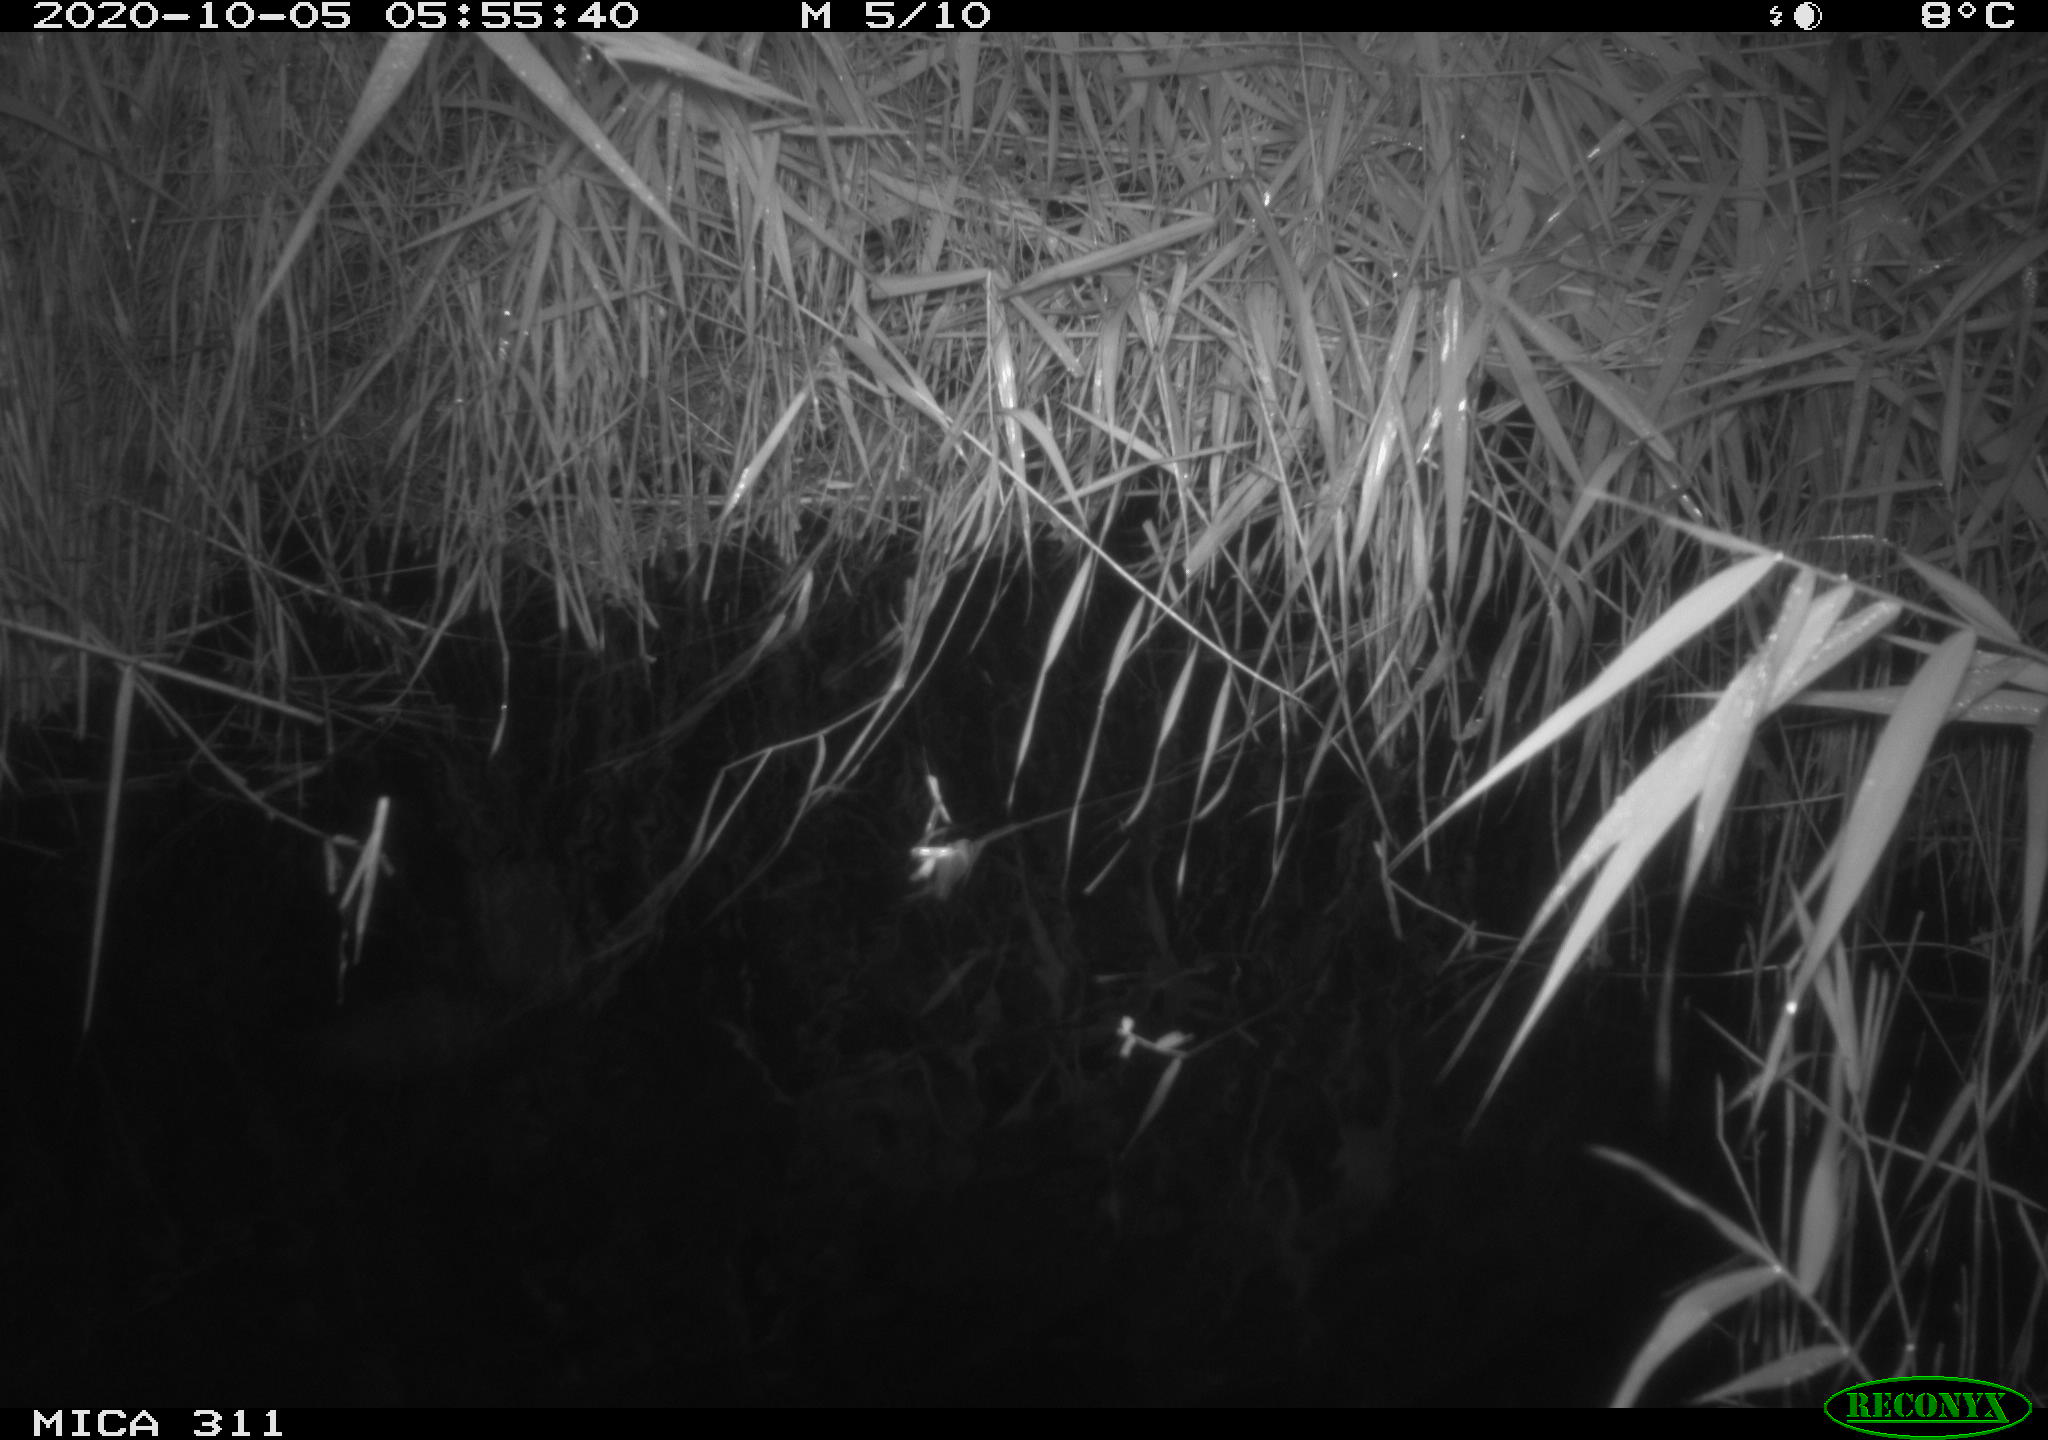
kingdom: Animalia
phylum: Chordata
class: Mammalia
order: Rodentia
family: Muridae
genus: Rattus
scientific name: Rattus norvegicus
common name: Brown rat
